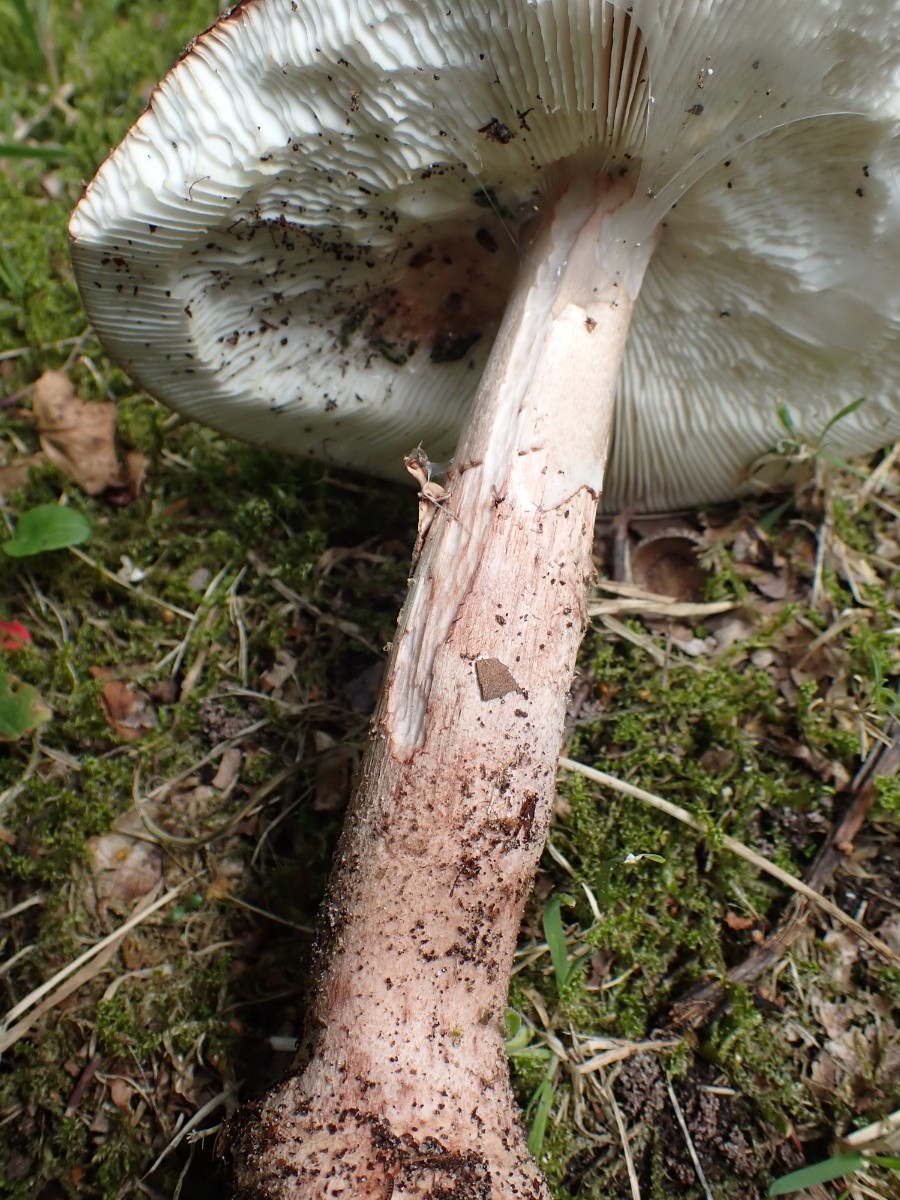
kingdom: Fungi
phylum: Basidiomycota
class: Agaricomycetes
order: Agaricales
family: Amanitaceae
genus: Amanita
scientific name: Amanita rubescens
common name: rødmende fluesvamp
